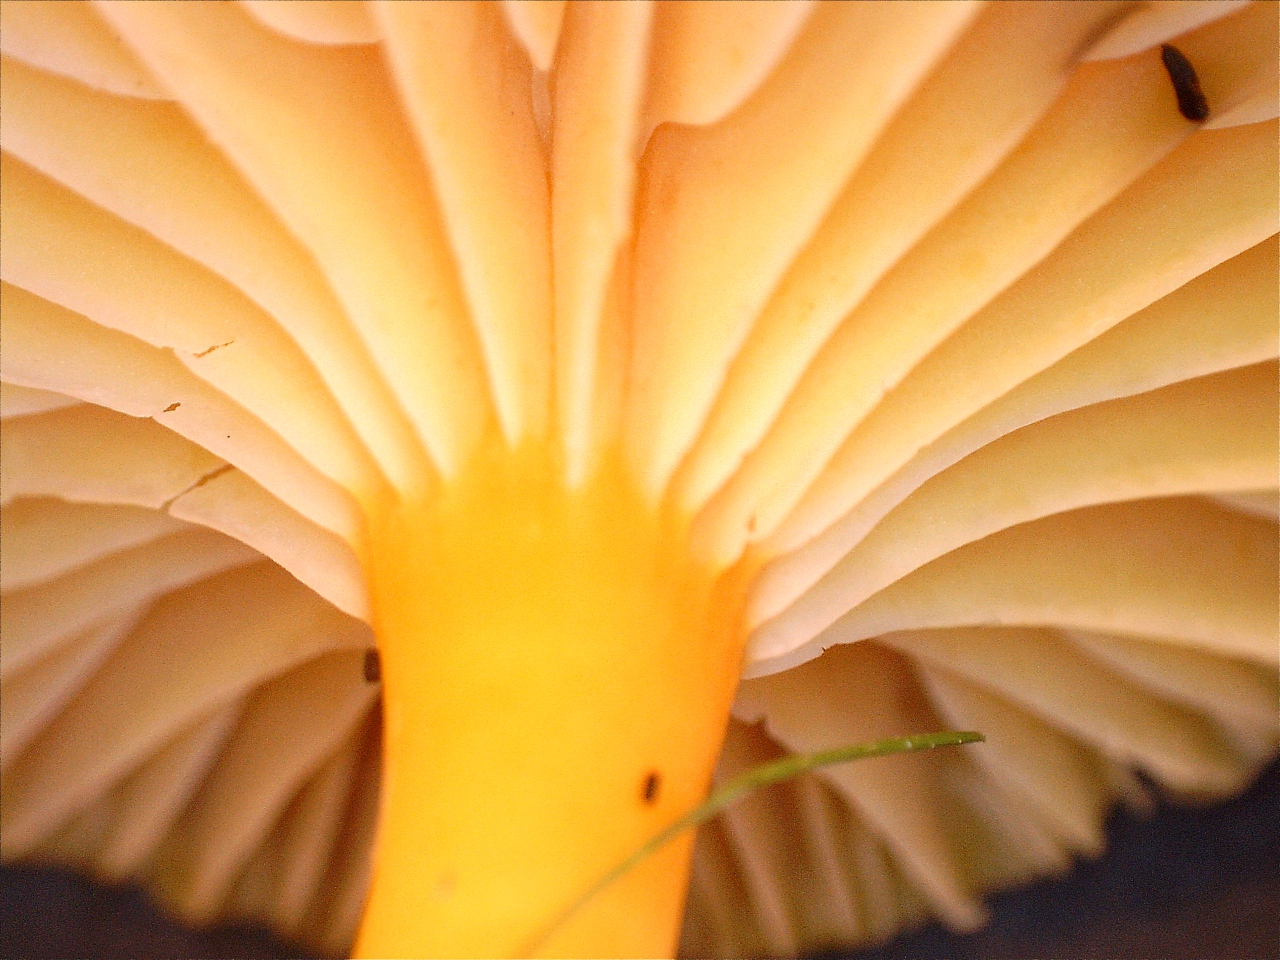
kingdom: Fungi
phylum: Basidiomycota
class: Agaricomycetes
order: Agaricales
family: Hygrophoraceae
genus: Hygrocybe
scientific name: Hygrocybe ceracea
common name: voksgul vokshat
